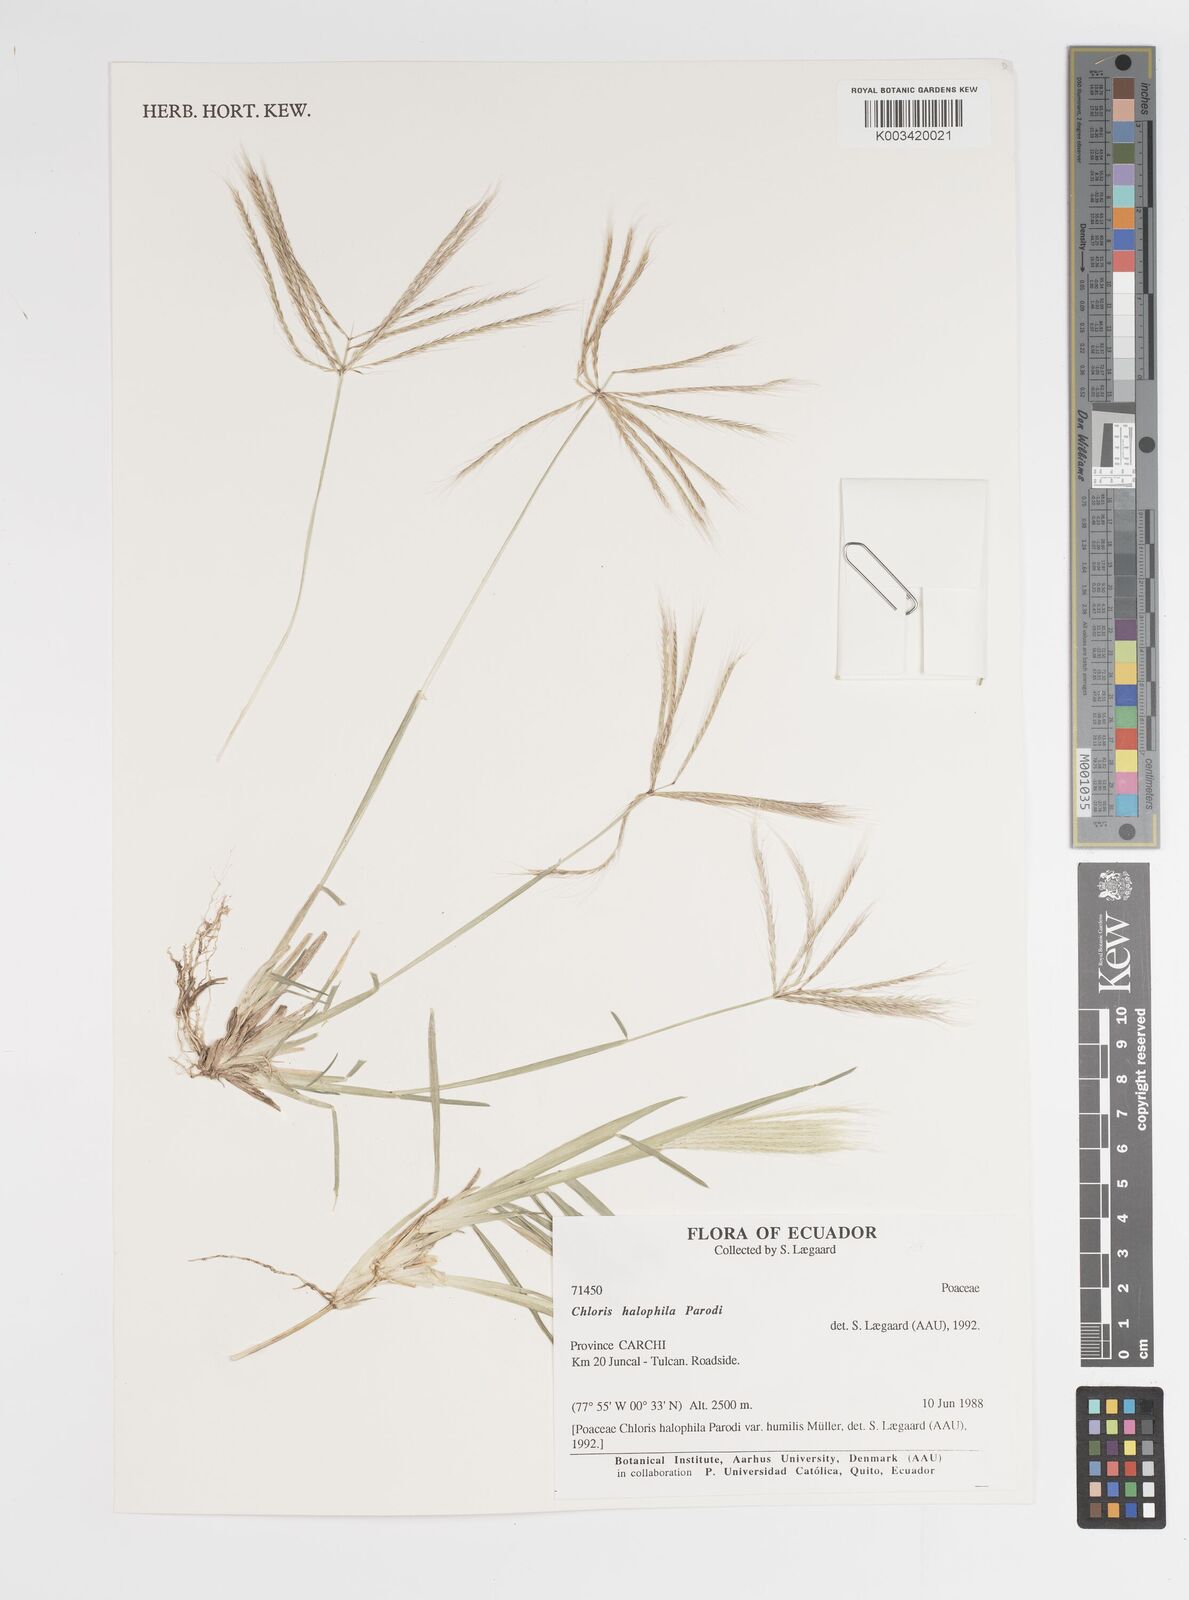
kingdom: Plantae
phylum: Tracheophyta
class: Liliopsida
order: Poales
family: Poaceae
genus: Chloris
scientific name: Chloris halophila
